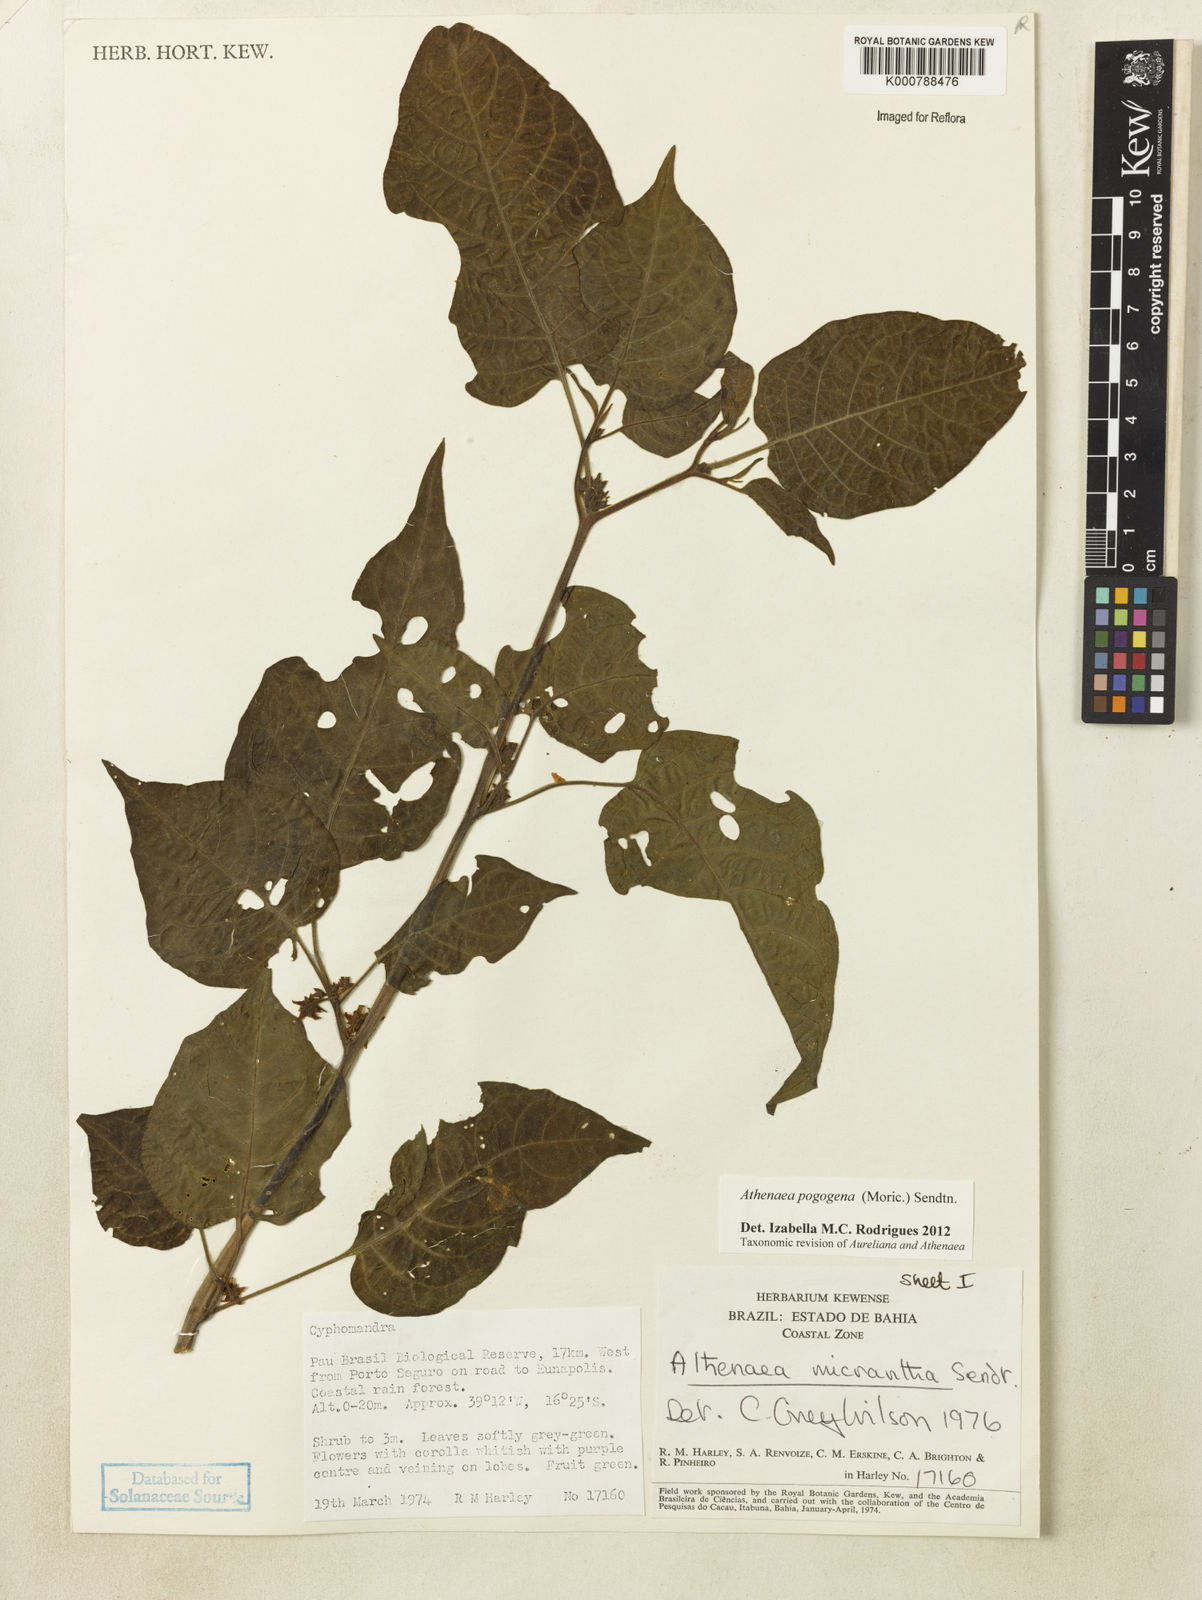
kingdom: Plantae
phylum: Tracheophyta
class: Magnoliopsida
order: Solanales
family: Solanaceae
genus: Athenaea
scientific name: Athenaea pogogena
